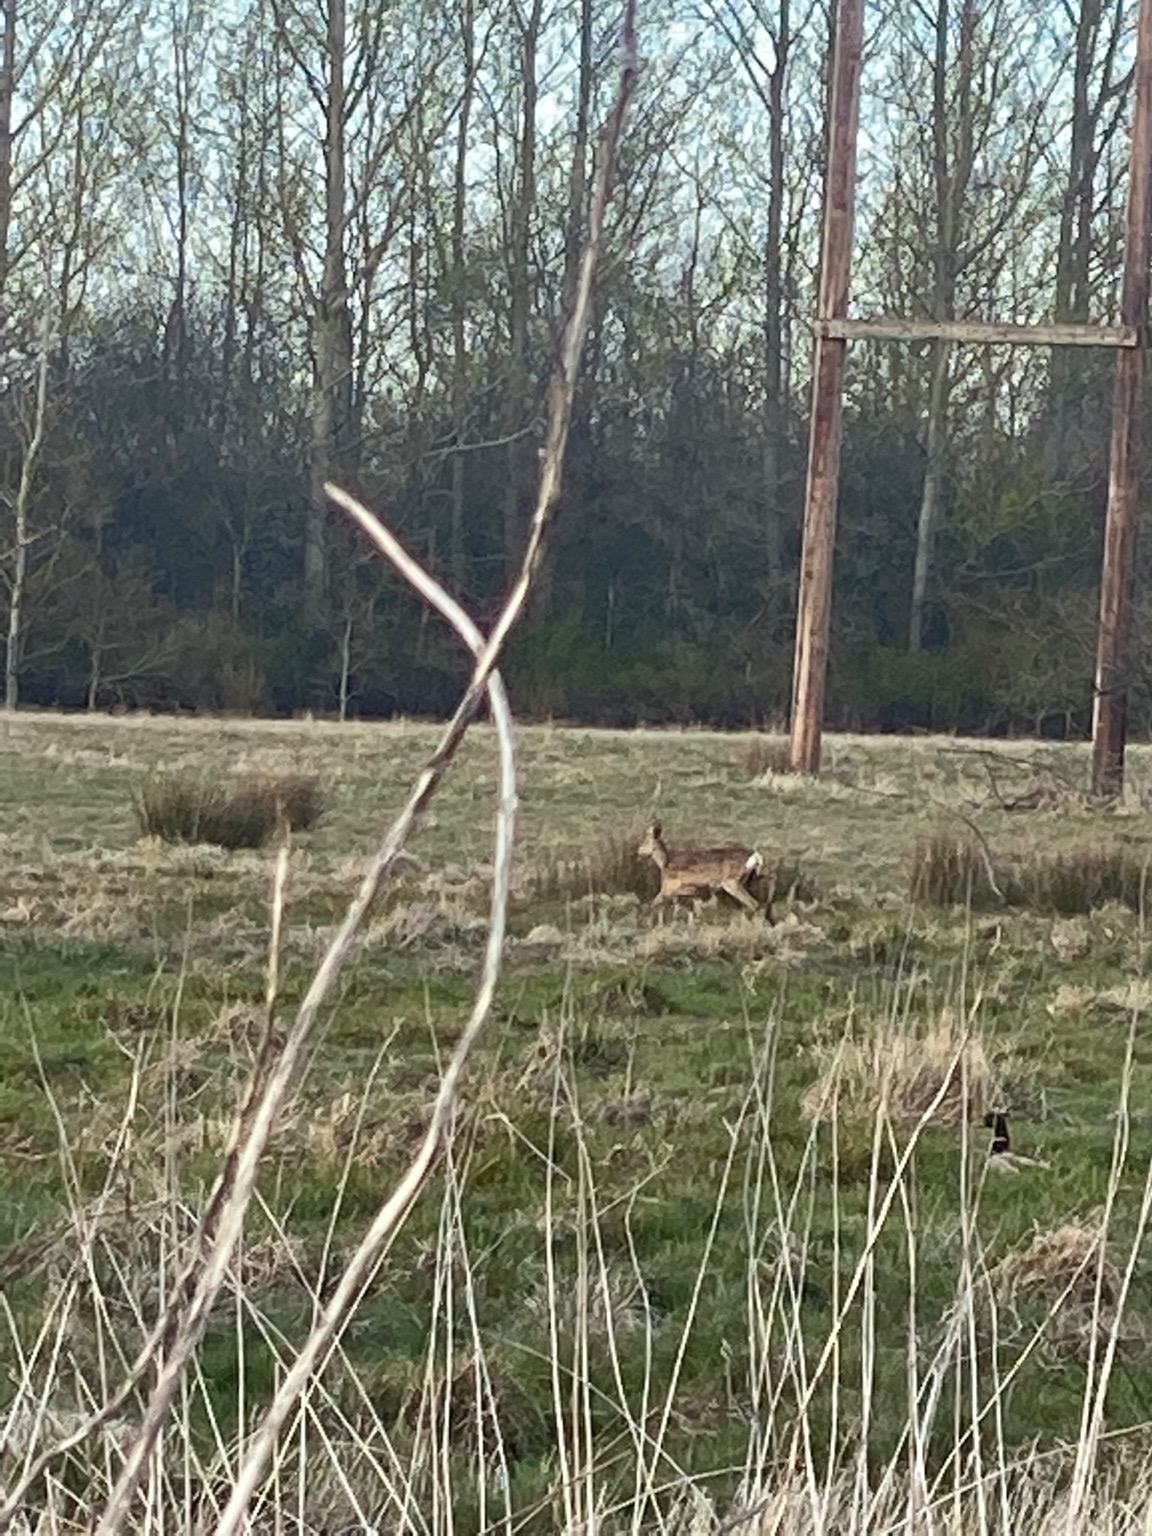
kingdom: Animalia
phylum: Chordata
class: Mammalia
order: Artiodactyla
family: Cervidae
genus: Capreolus
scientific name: Capreolus capreolus
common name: Rådyr
